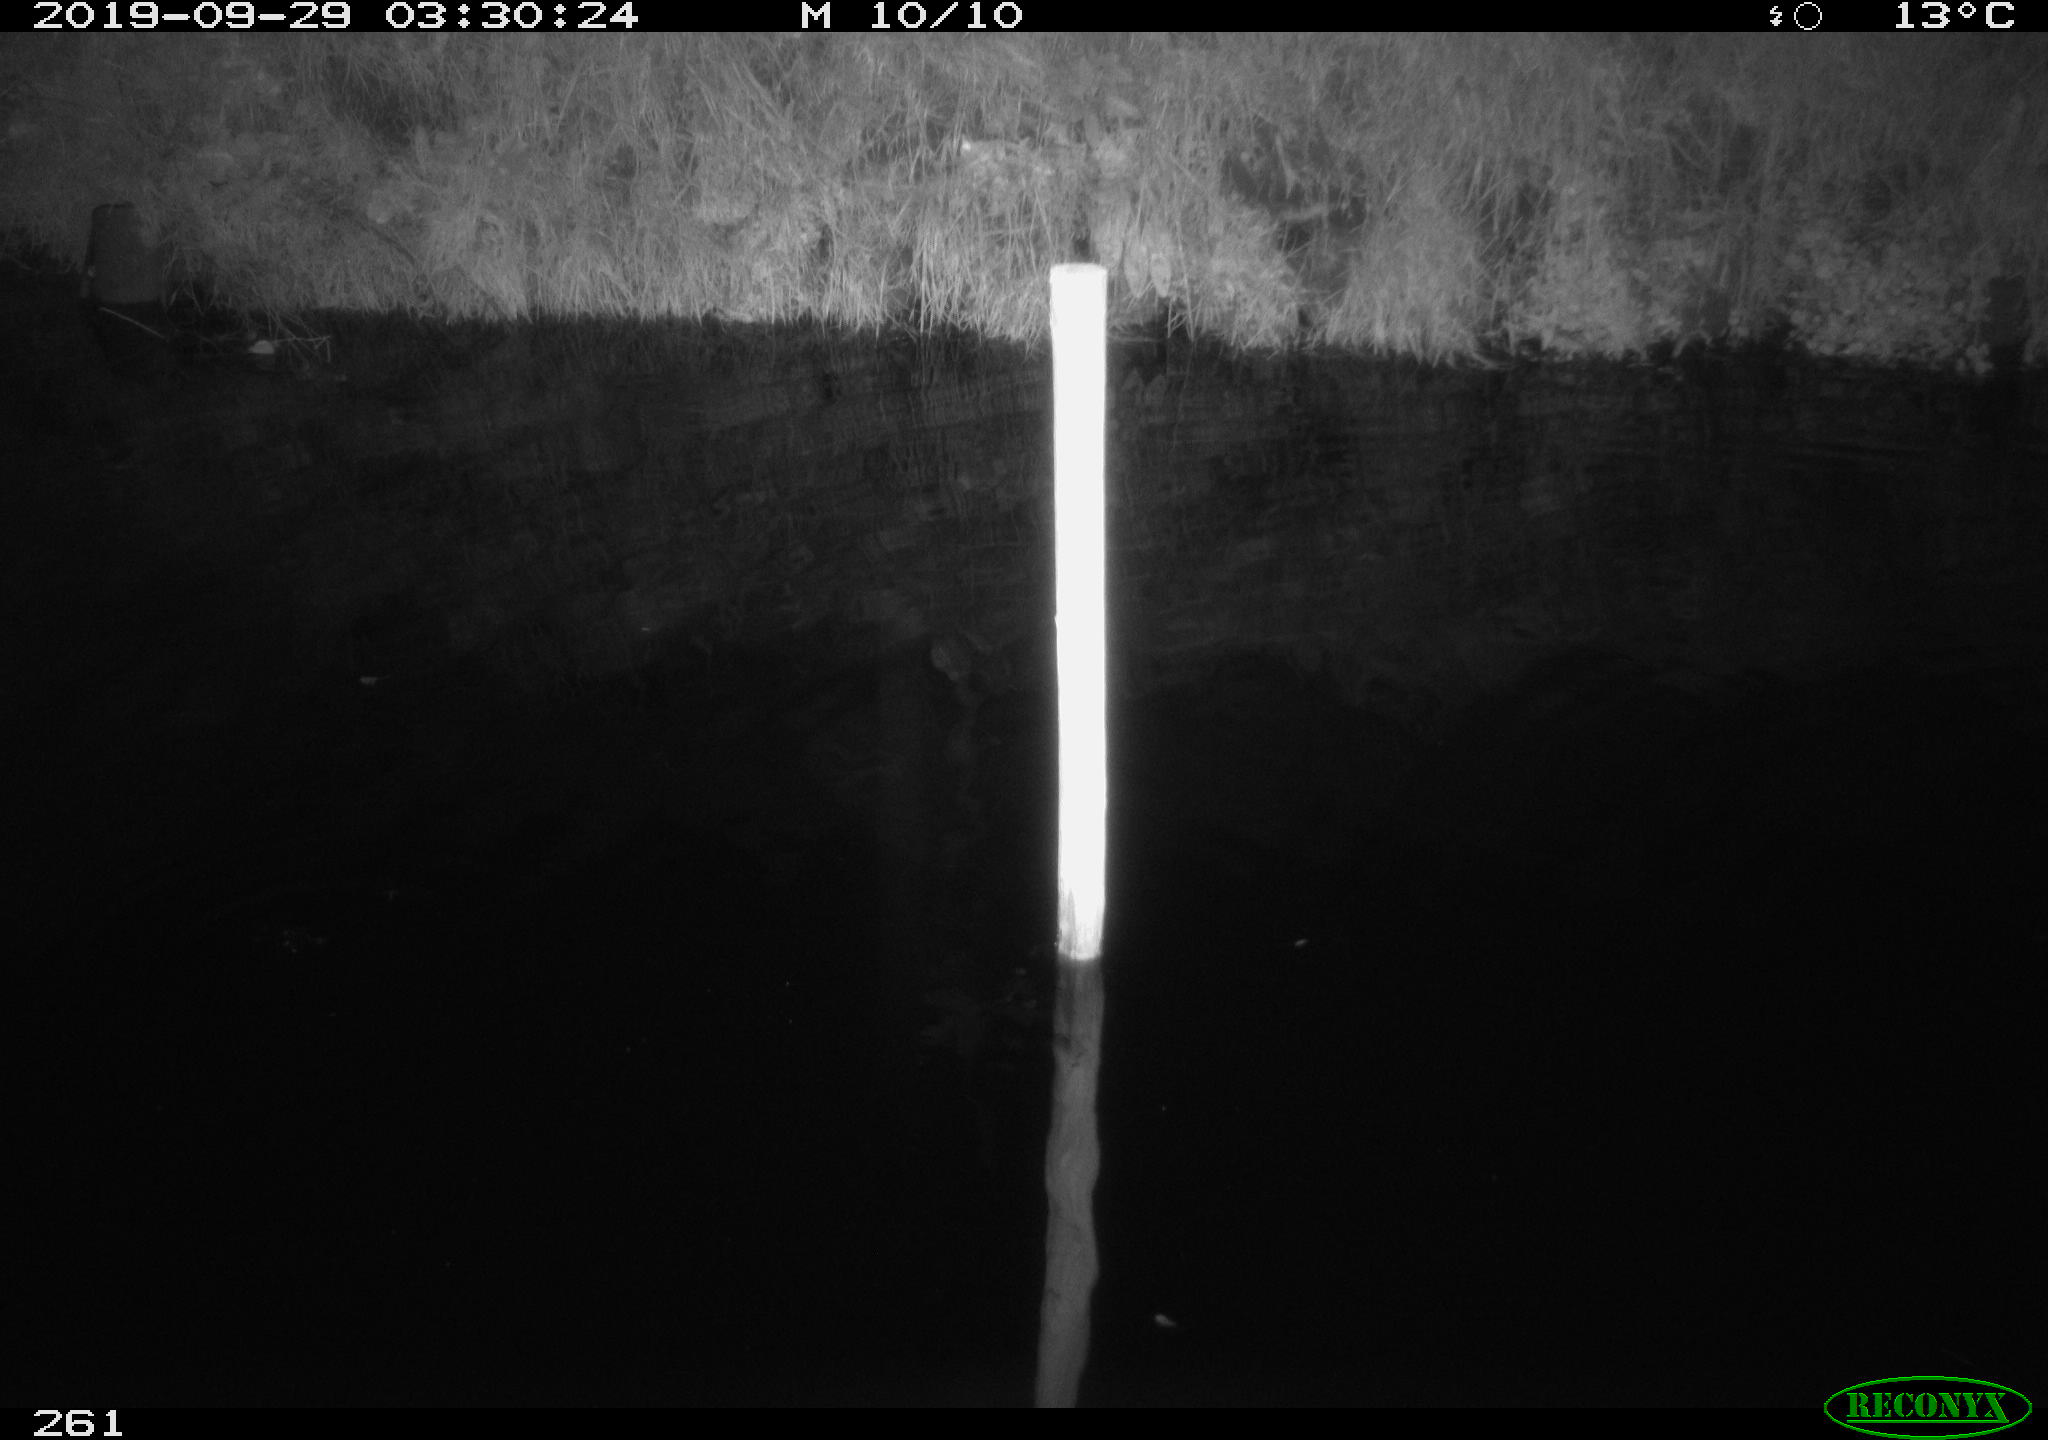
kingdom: Animalia
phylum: Chordata
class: Aves
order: Anseriformes
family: Anatidae
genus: Anas
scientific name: Anas platyrhynchos
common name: Mallard
